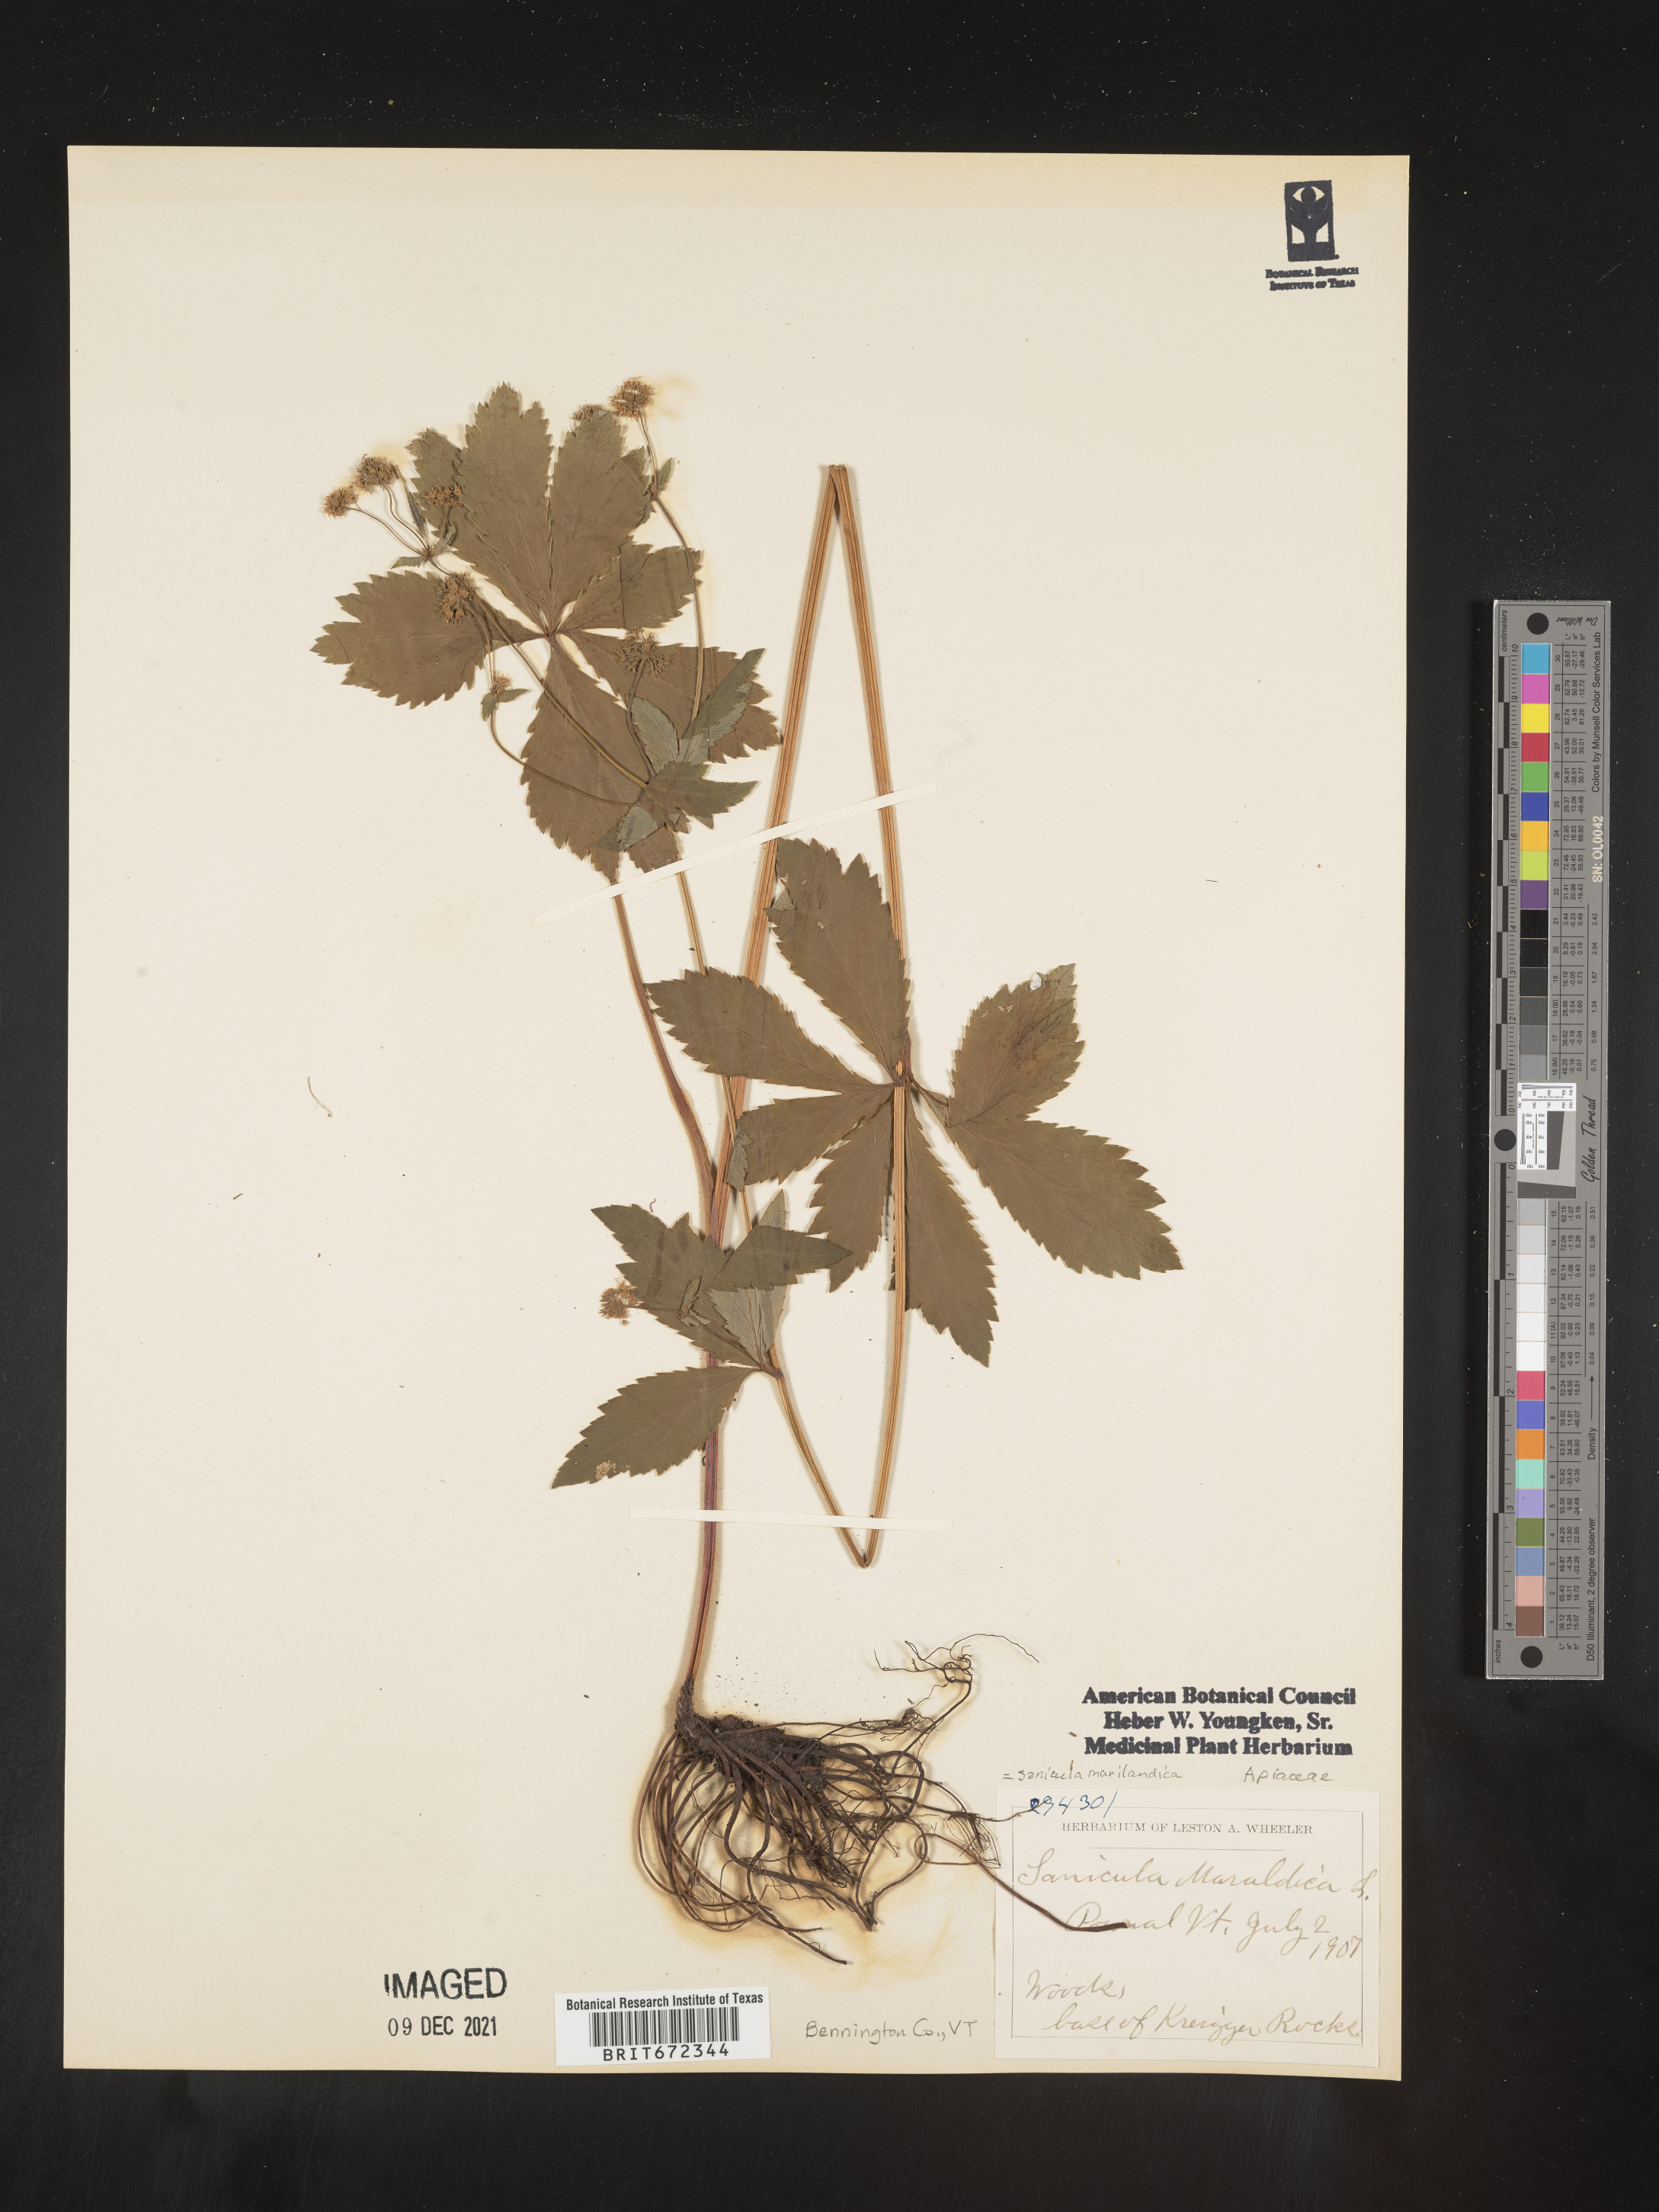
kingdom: Plantae
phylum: Tracheophyta
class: Magnoliopsida
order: Apiales
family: Apiaceae
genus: Sanicula
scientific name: Sanicula marilandica
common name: Black snakeroot
